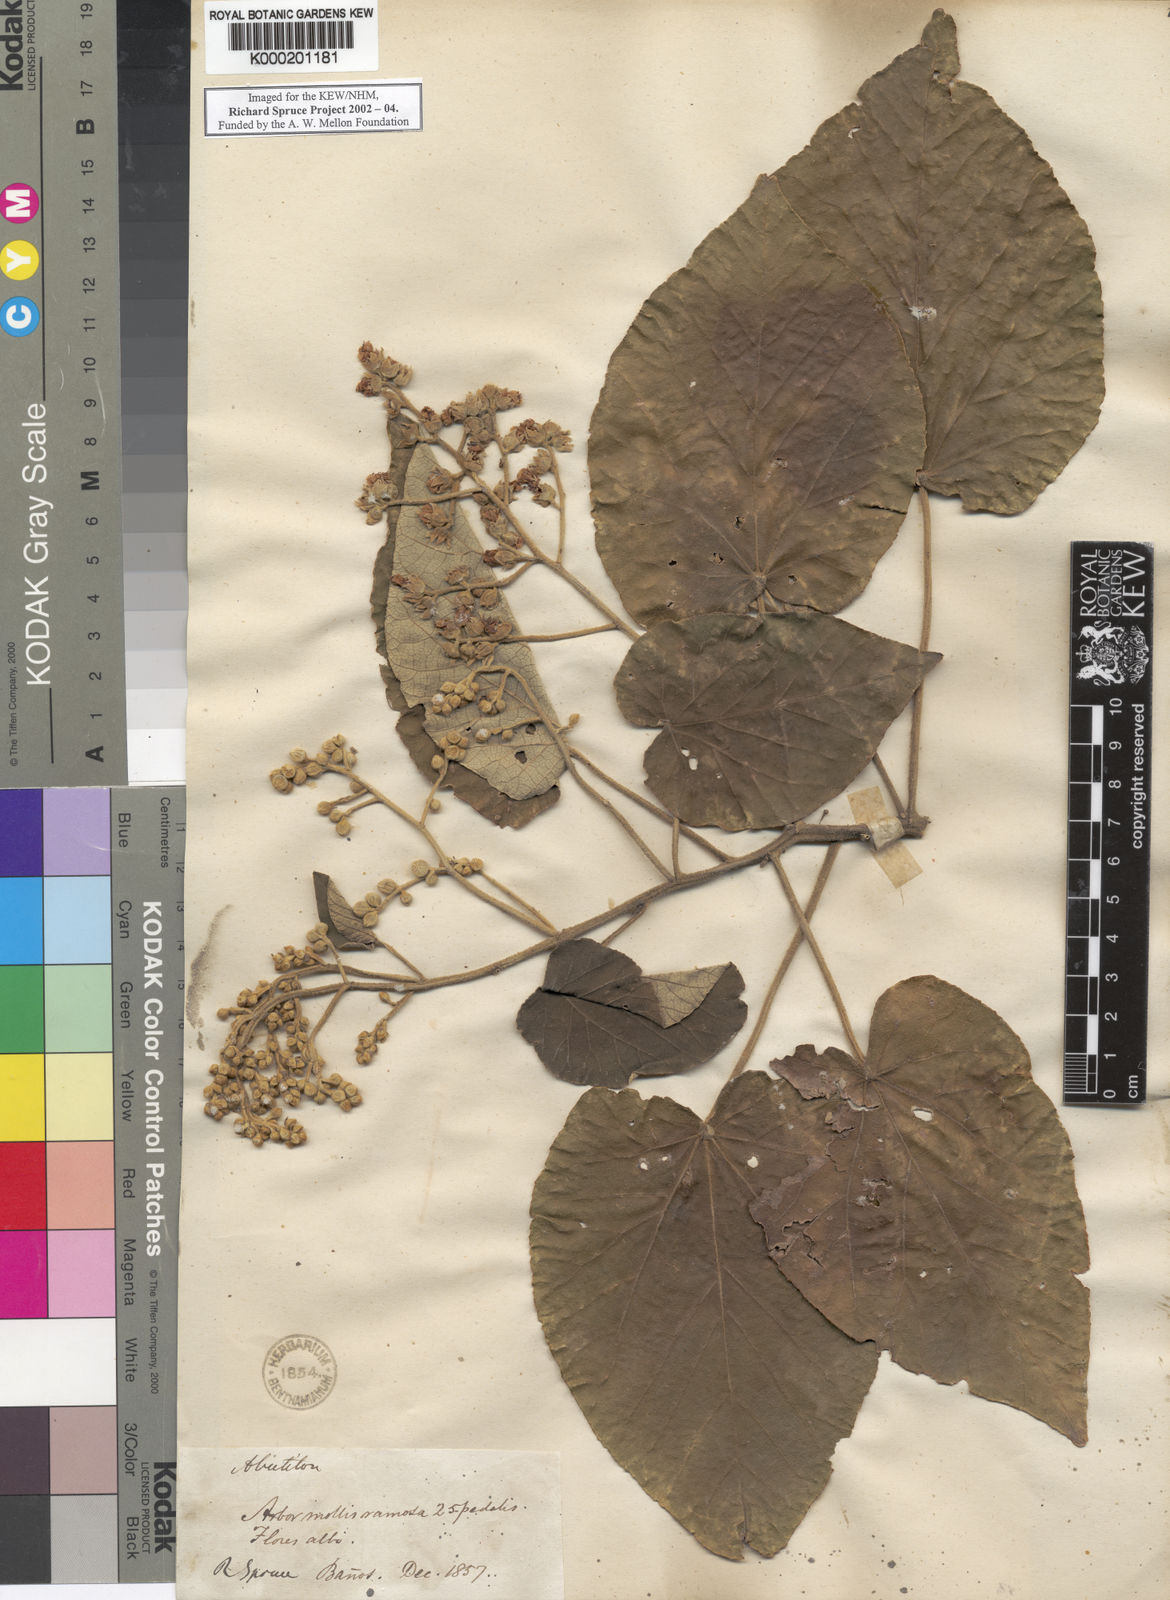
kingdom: Plantae
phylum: Tracheophyta
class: Magnoliopsida
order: Malvales
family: Malvaceae
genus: Abutilon
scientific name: Abutilon
